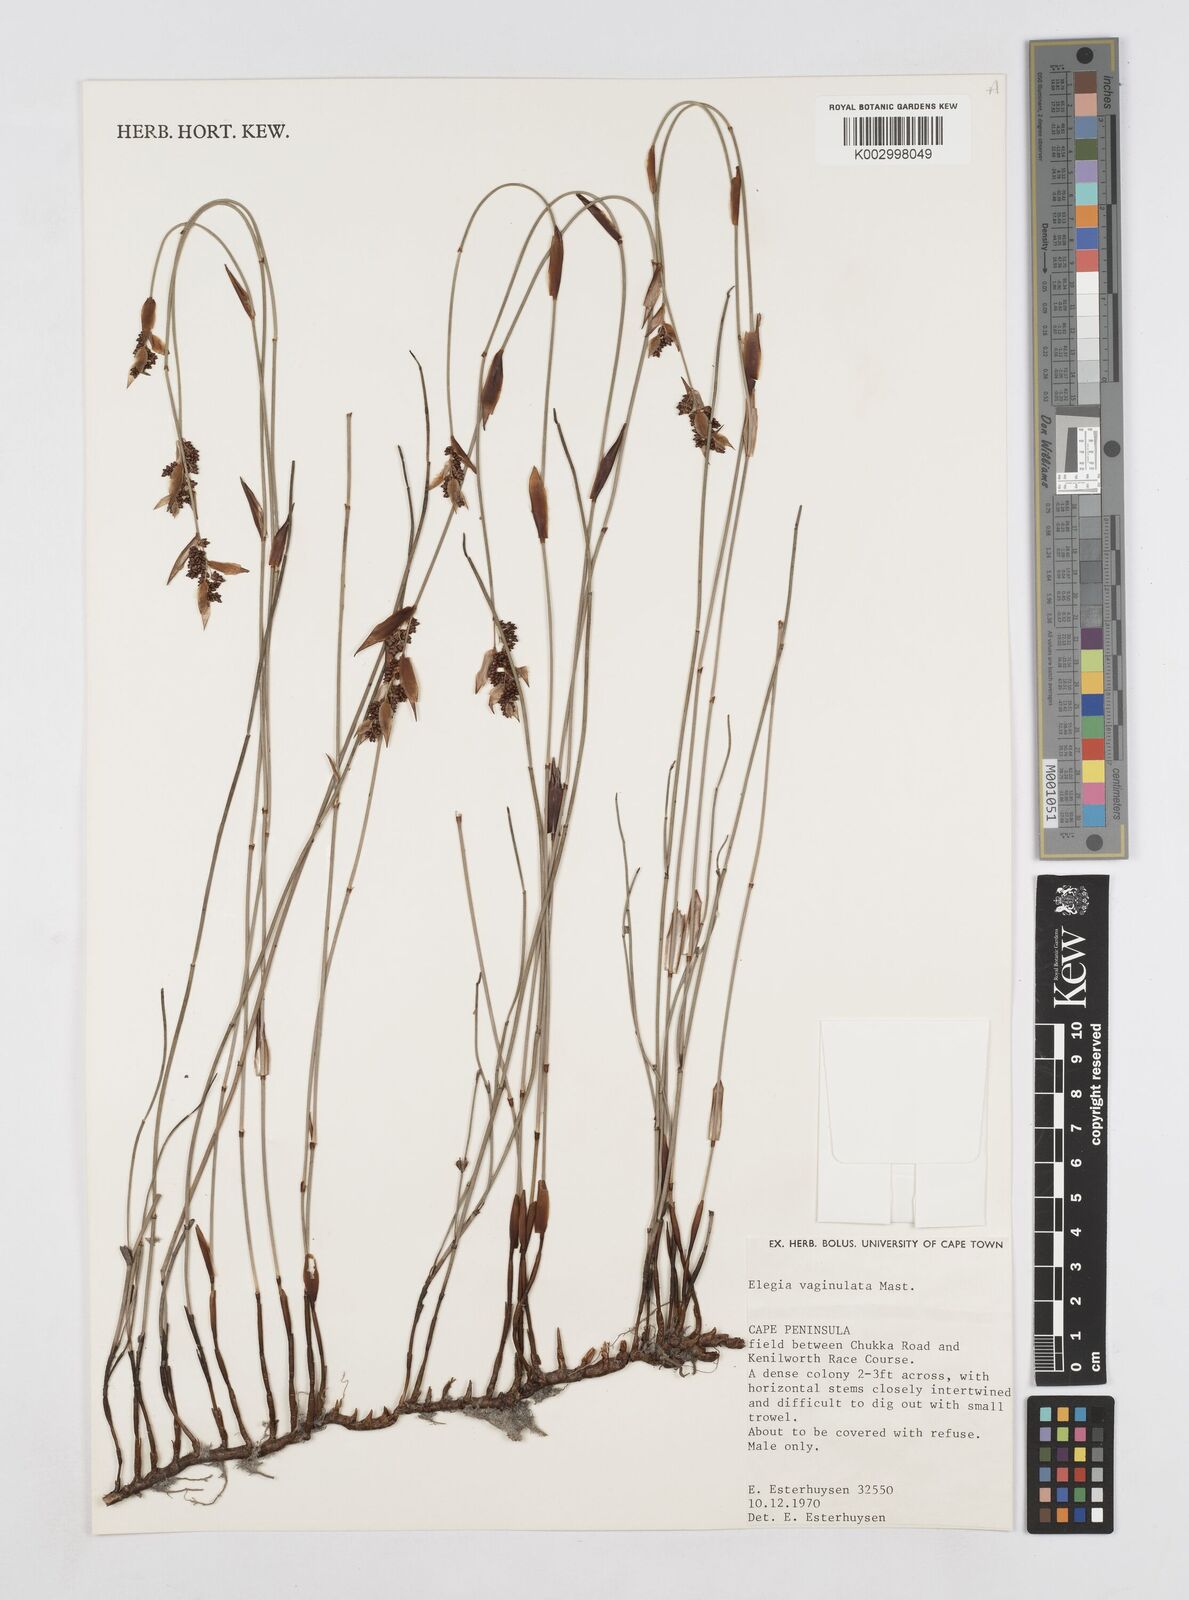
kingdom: Plantae
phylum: Tracheophyta
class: Liliopsida
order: Poales
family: Restionaceae
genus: Elegia
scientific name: Elegia vaginulata
